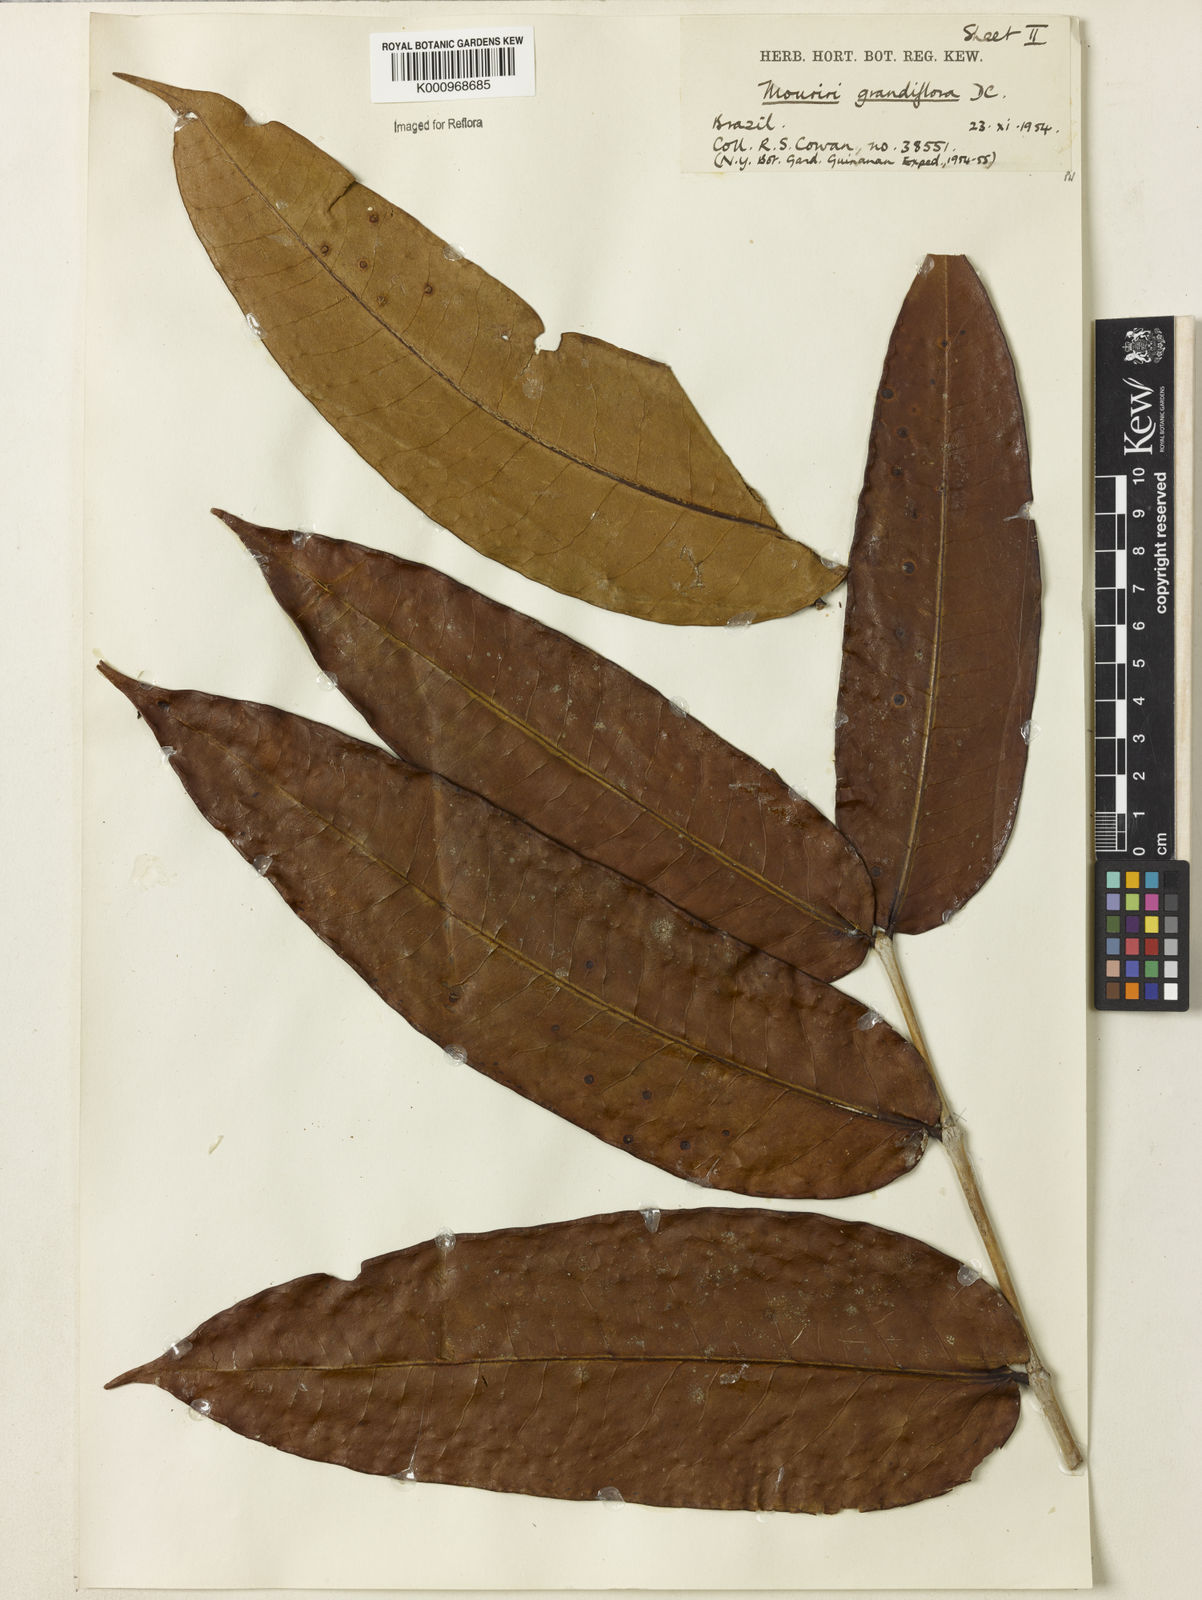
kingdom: Plantae
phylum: Tracheophyta
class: Magnoliopsida
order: Myrtales
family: Melastomataceae
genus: Mouriri
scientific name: Mouriri grandiflora
